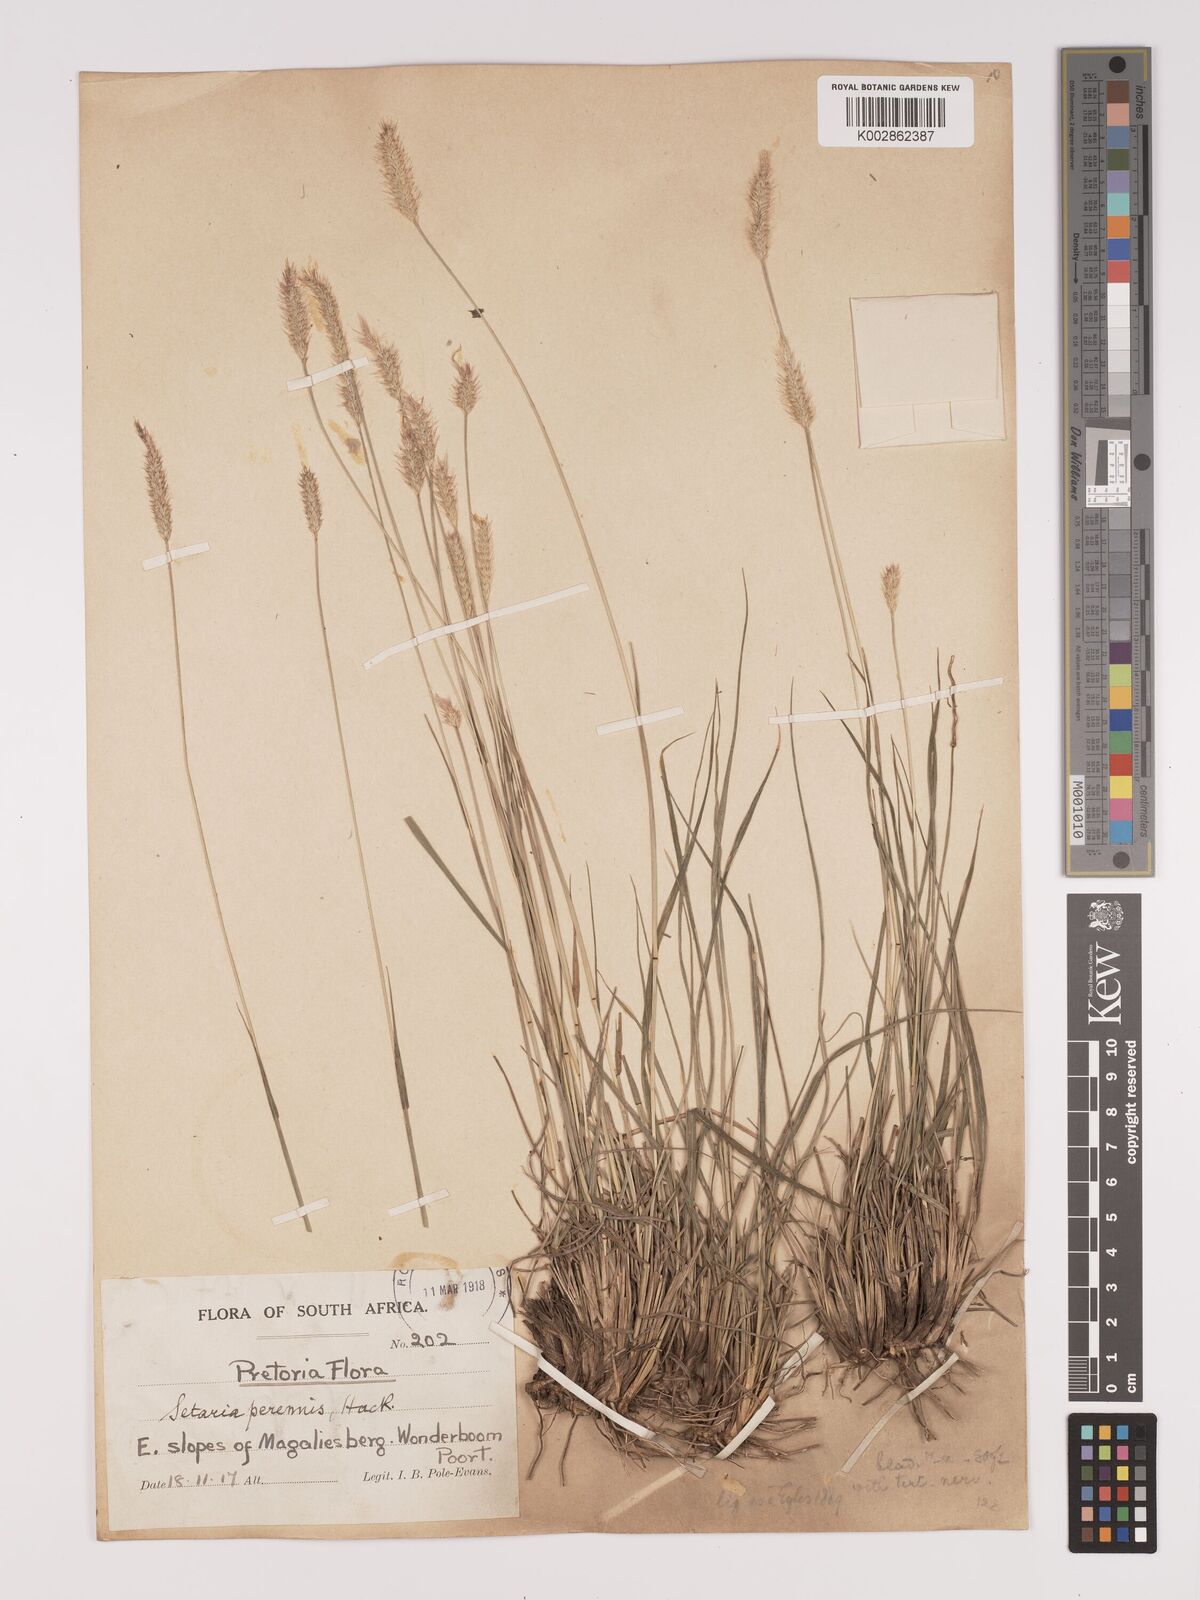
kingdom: Plantae
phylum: Tracheophyta
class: Liliopsida
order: Poales
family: Poaceae
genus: Setaria
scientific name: Setaria sphacelata
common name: African bristlegrass
